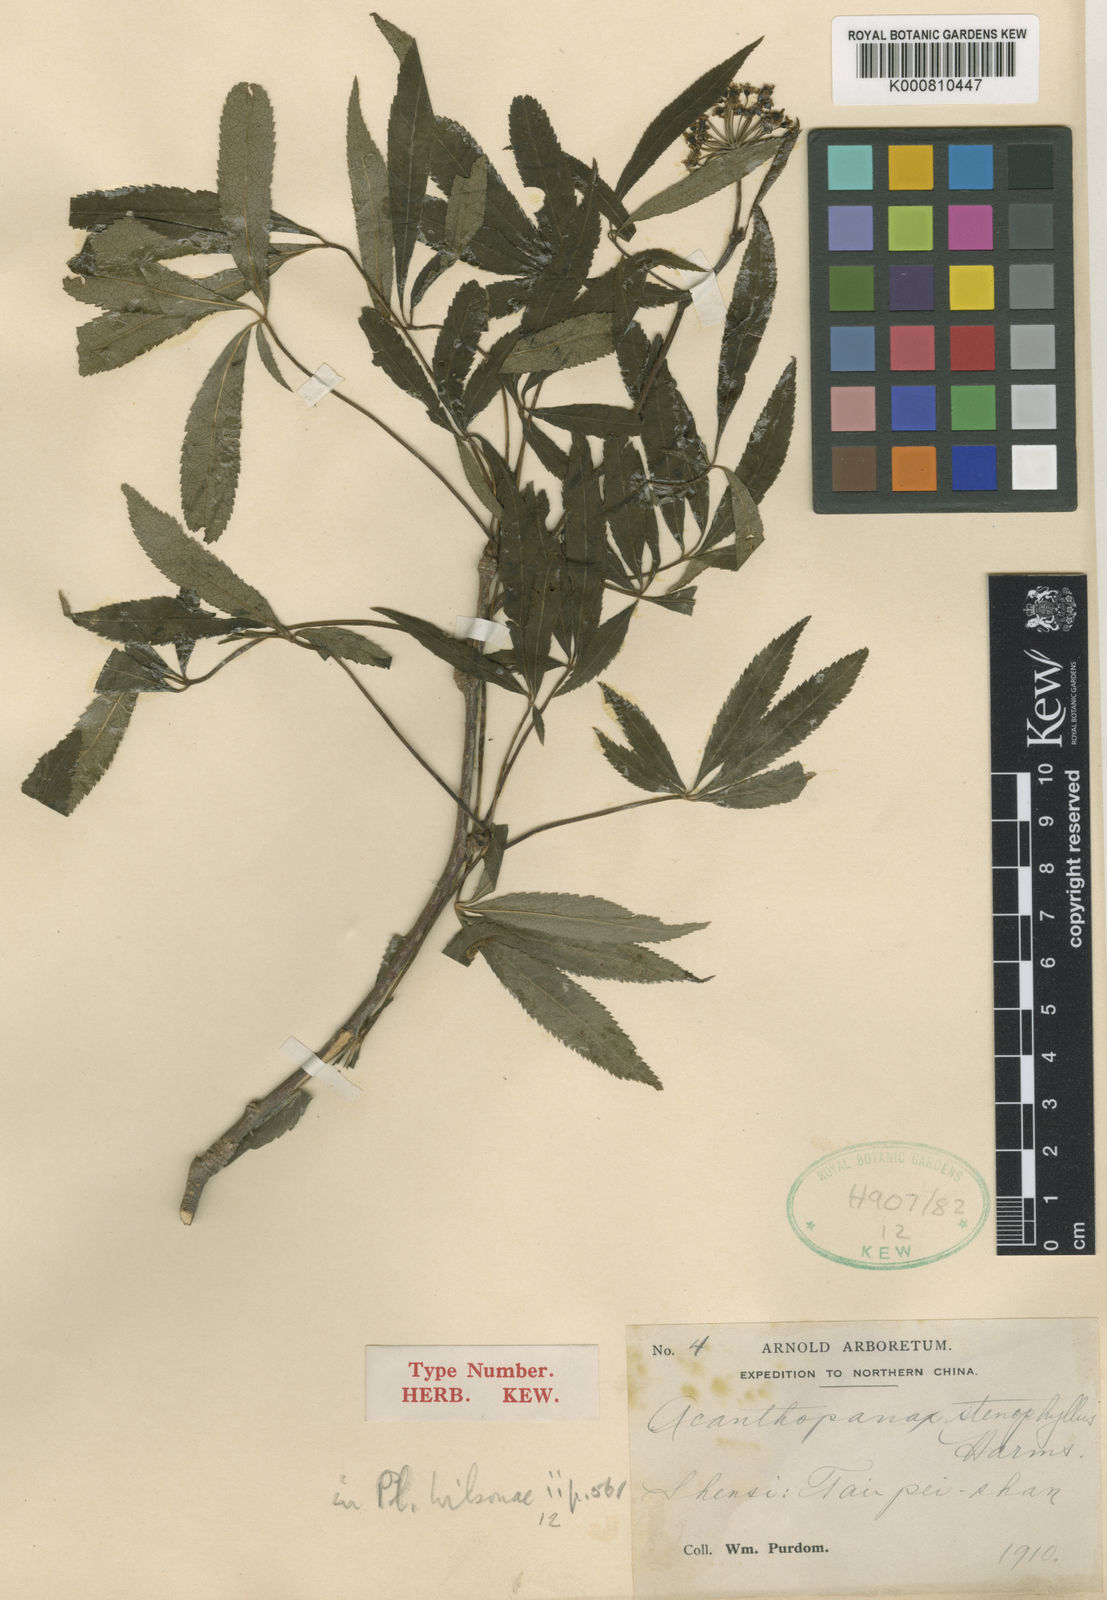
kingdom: Plantae
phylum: Tracheophyta
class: Magnoliopsida
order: Apiales
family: Araliaceae
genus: Eleutherococcus
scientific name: Eleutherococcus wilsonii
